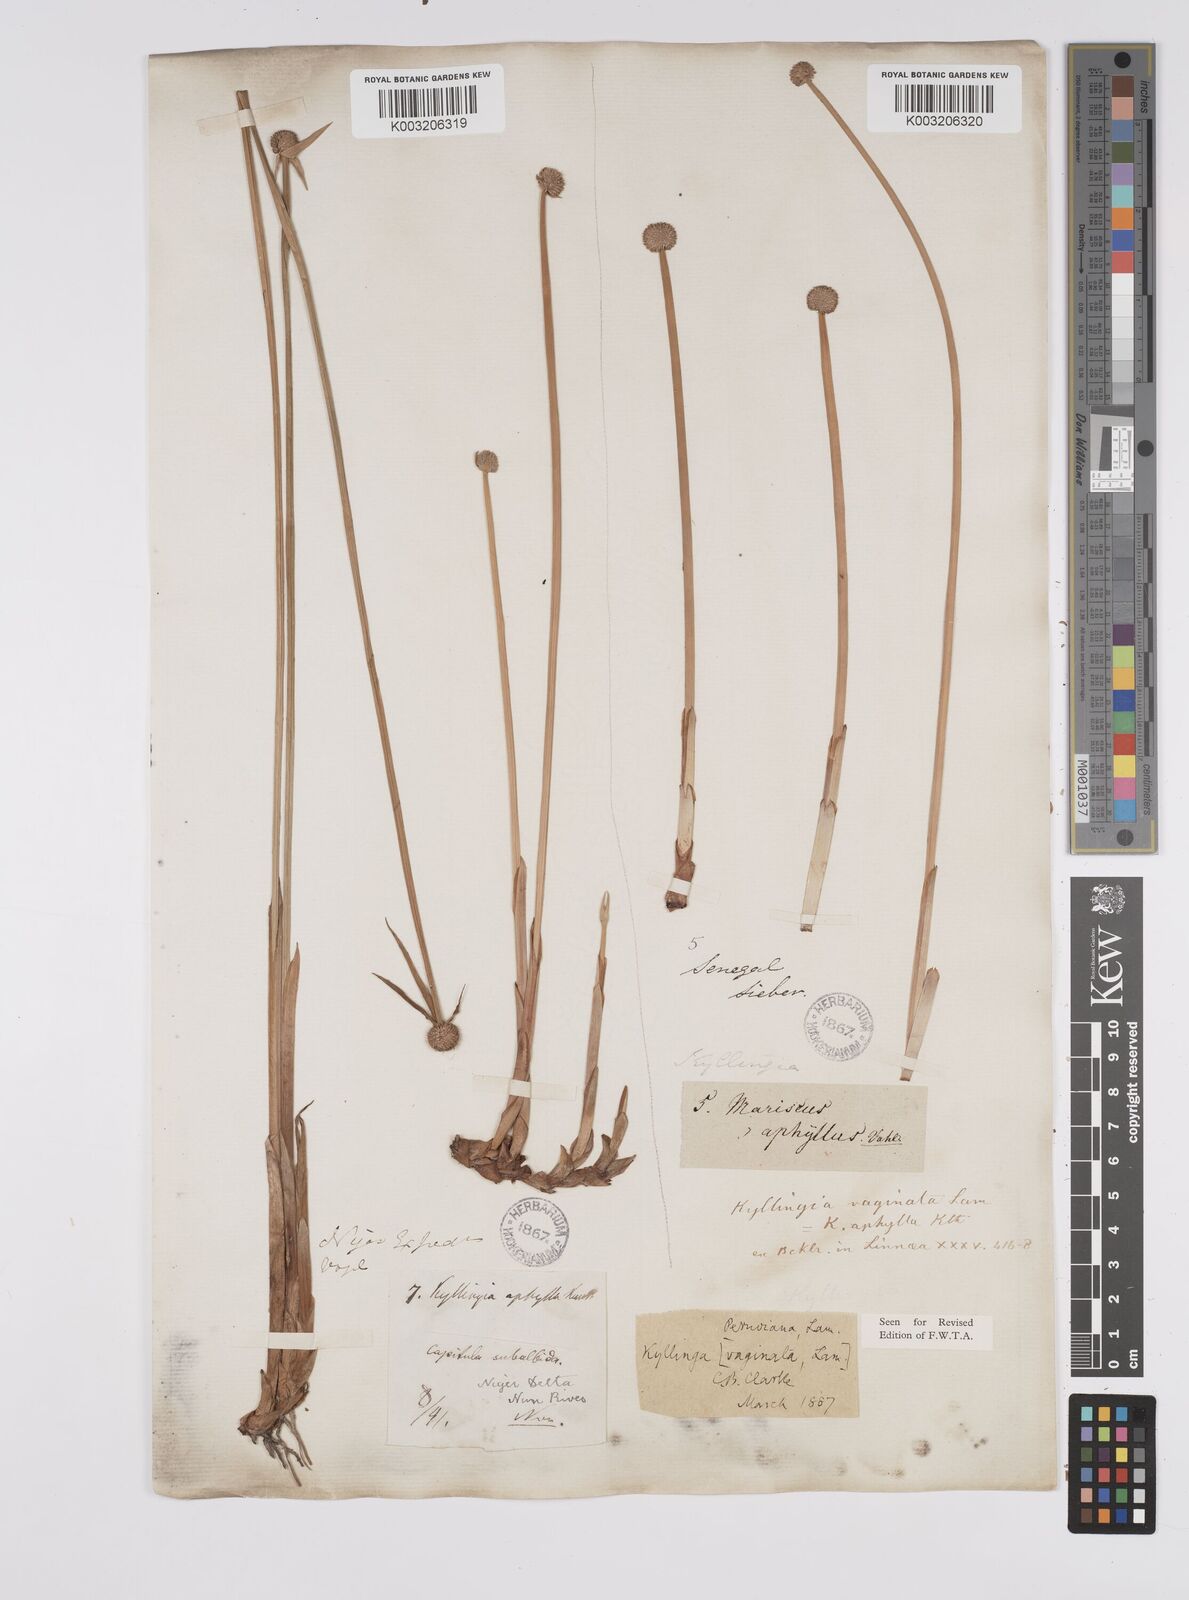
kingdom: Plantae
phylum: Tracheophyta
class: Liliopsida
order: Poales
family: Cyperaceae
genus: Cyperus
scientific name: Cyperus
